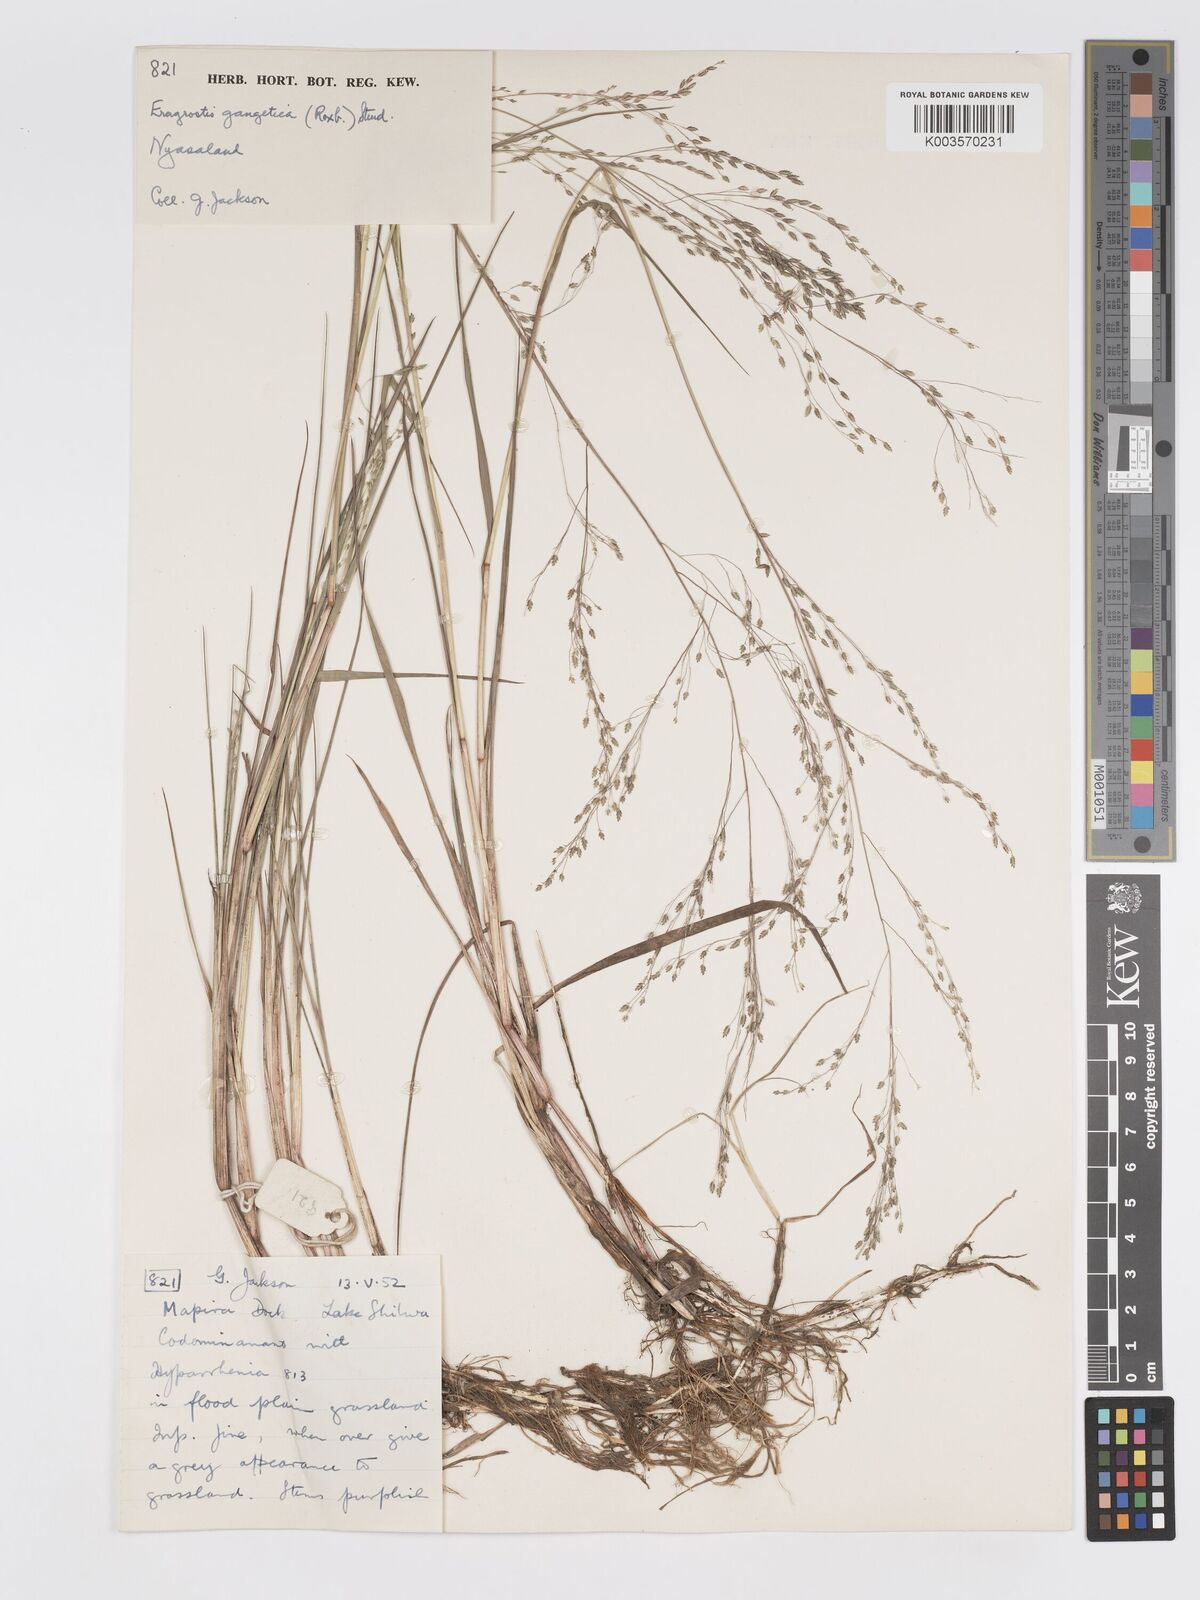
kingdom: Plantae
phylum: Tracheophyta
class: Liliopsida
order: Poales
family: Poaceae
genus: Eragrostis
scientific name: Eragrostis gangetica
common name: Slimflower lovegrass
